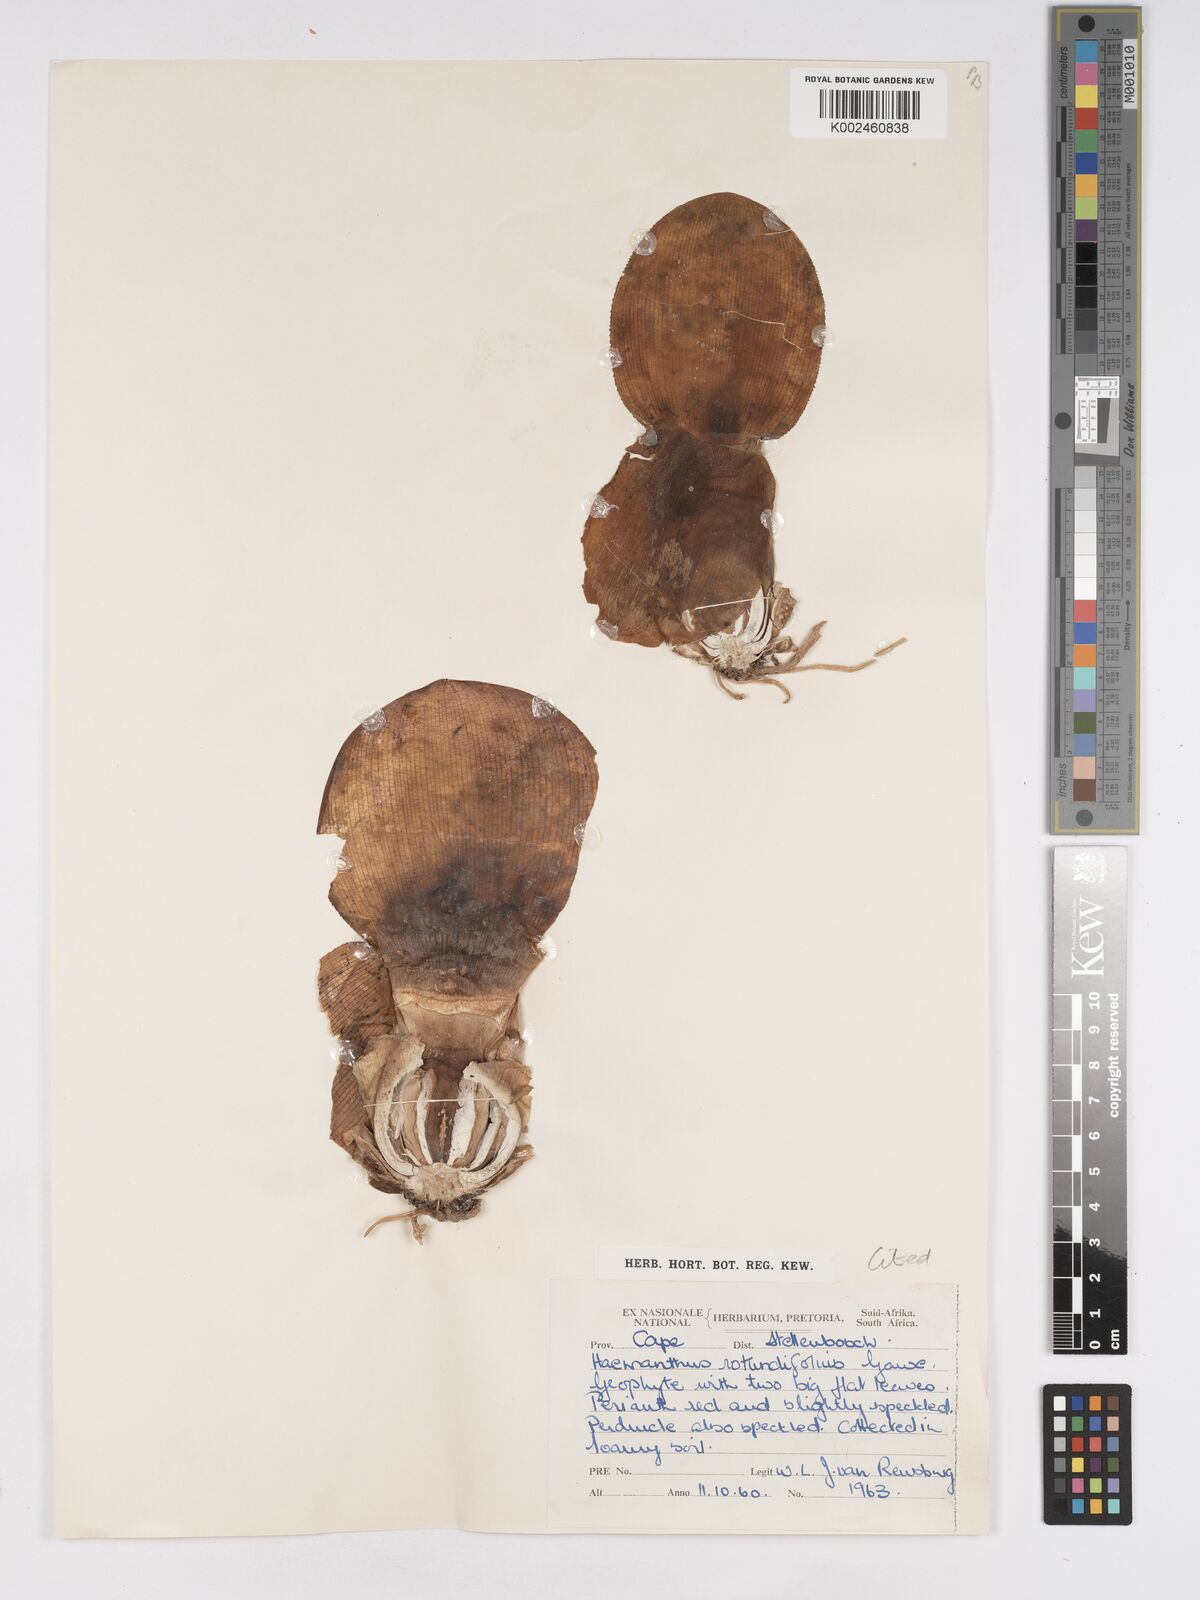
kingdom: Plantae
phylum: Tracheophyta
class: Liliopsida
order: Asparagales
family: Amaryllidaceae
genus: Haemanthus
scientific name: Haemanthus sanguineus
